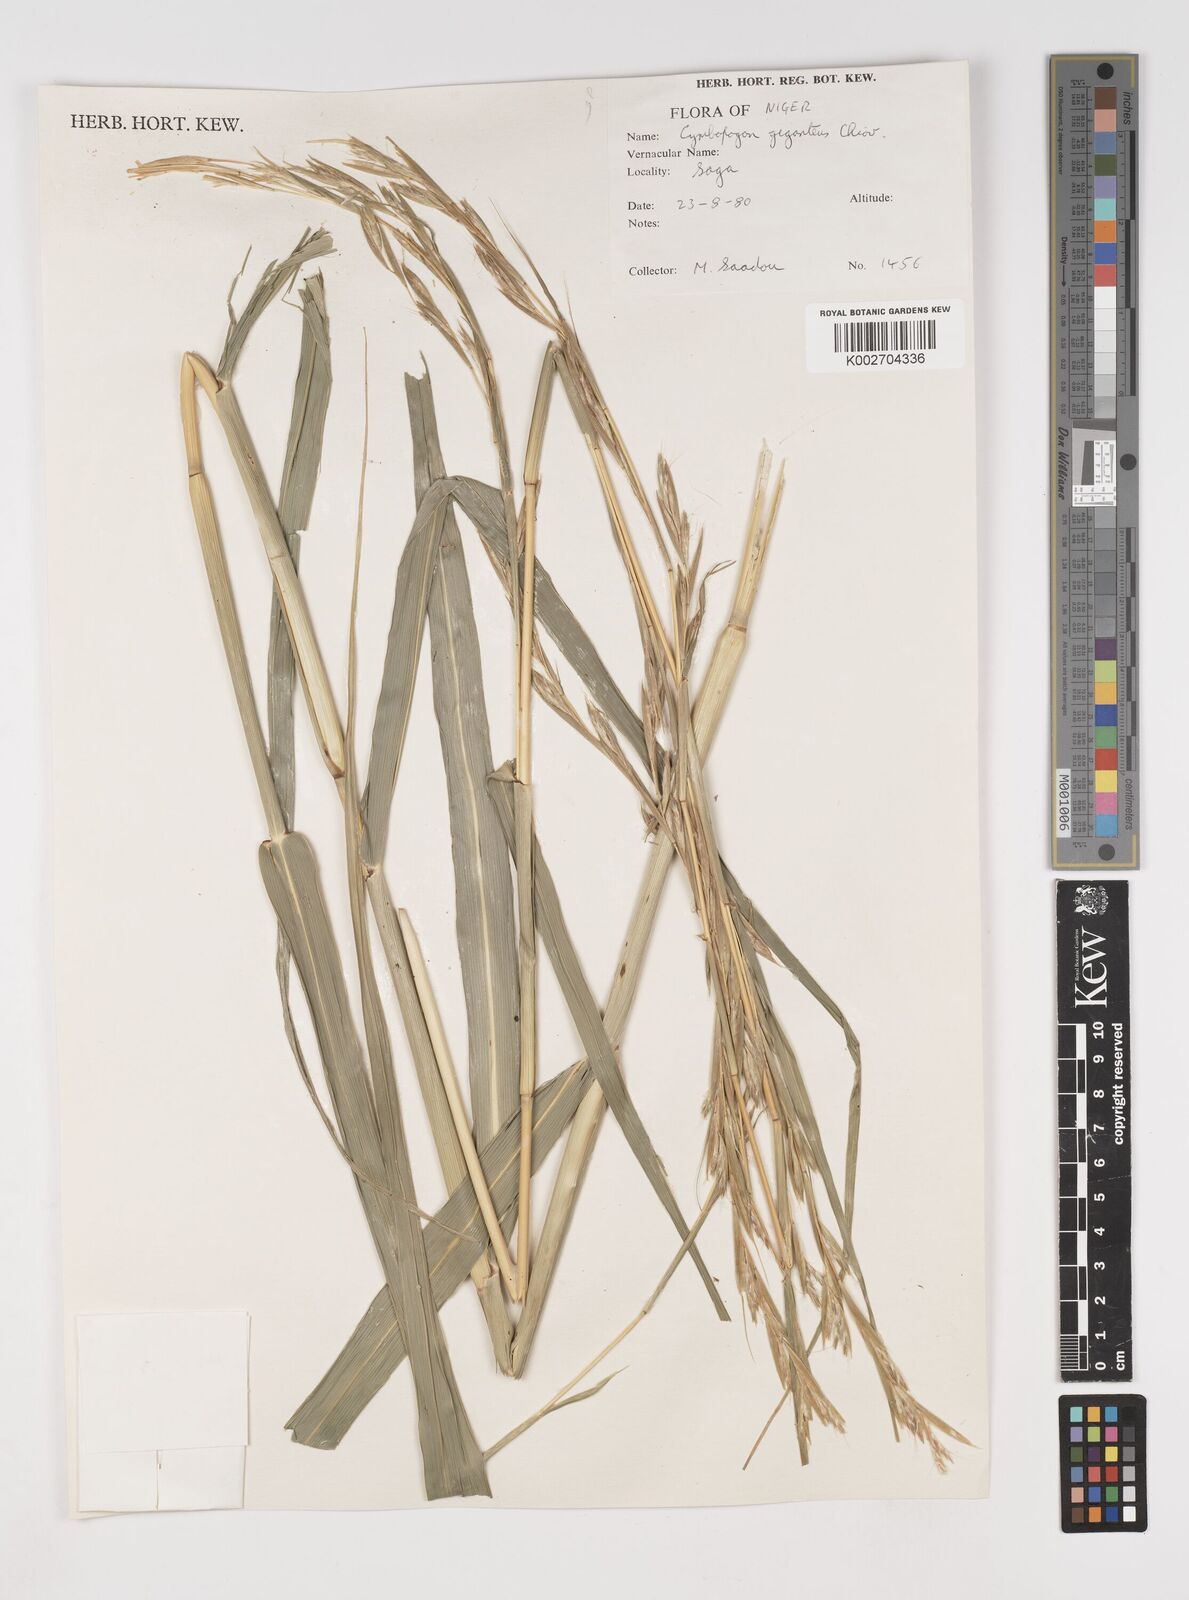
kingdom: Plantae
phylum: Tracheophyta
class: Liliopsida
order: Poales
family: Poaceae
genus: Cymbopogon
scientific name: Cymbopogon giganteus
